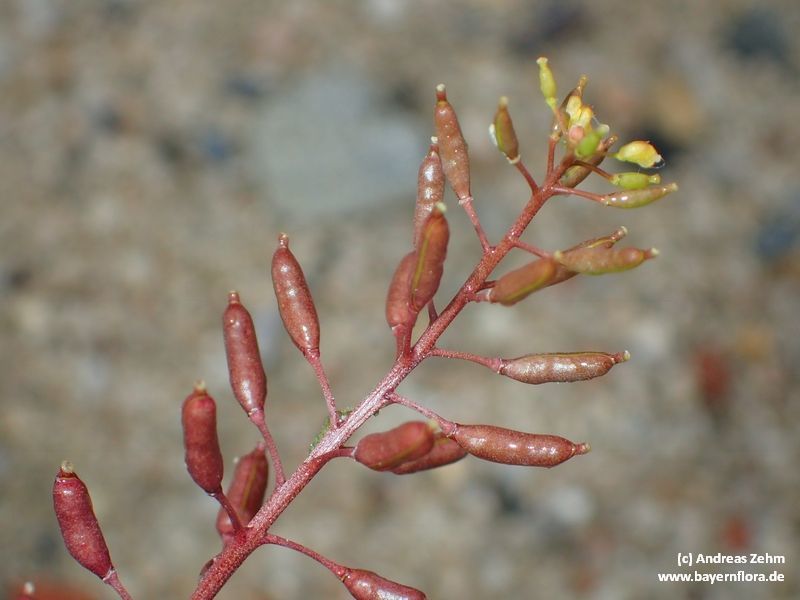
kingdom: Plantae
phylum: Tracheophyta
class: Magnoliopsida
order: Brassicales
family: Brassicaceae
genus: Rorippa
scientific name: Rorippa palustris
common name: Marsh yellow-cress
